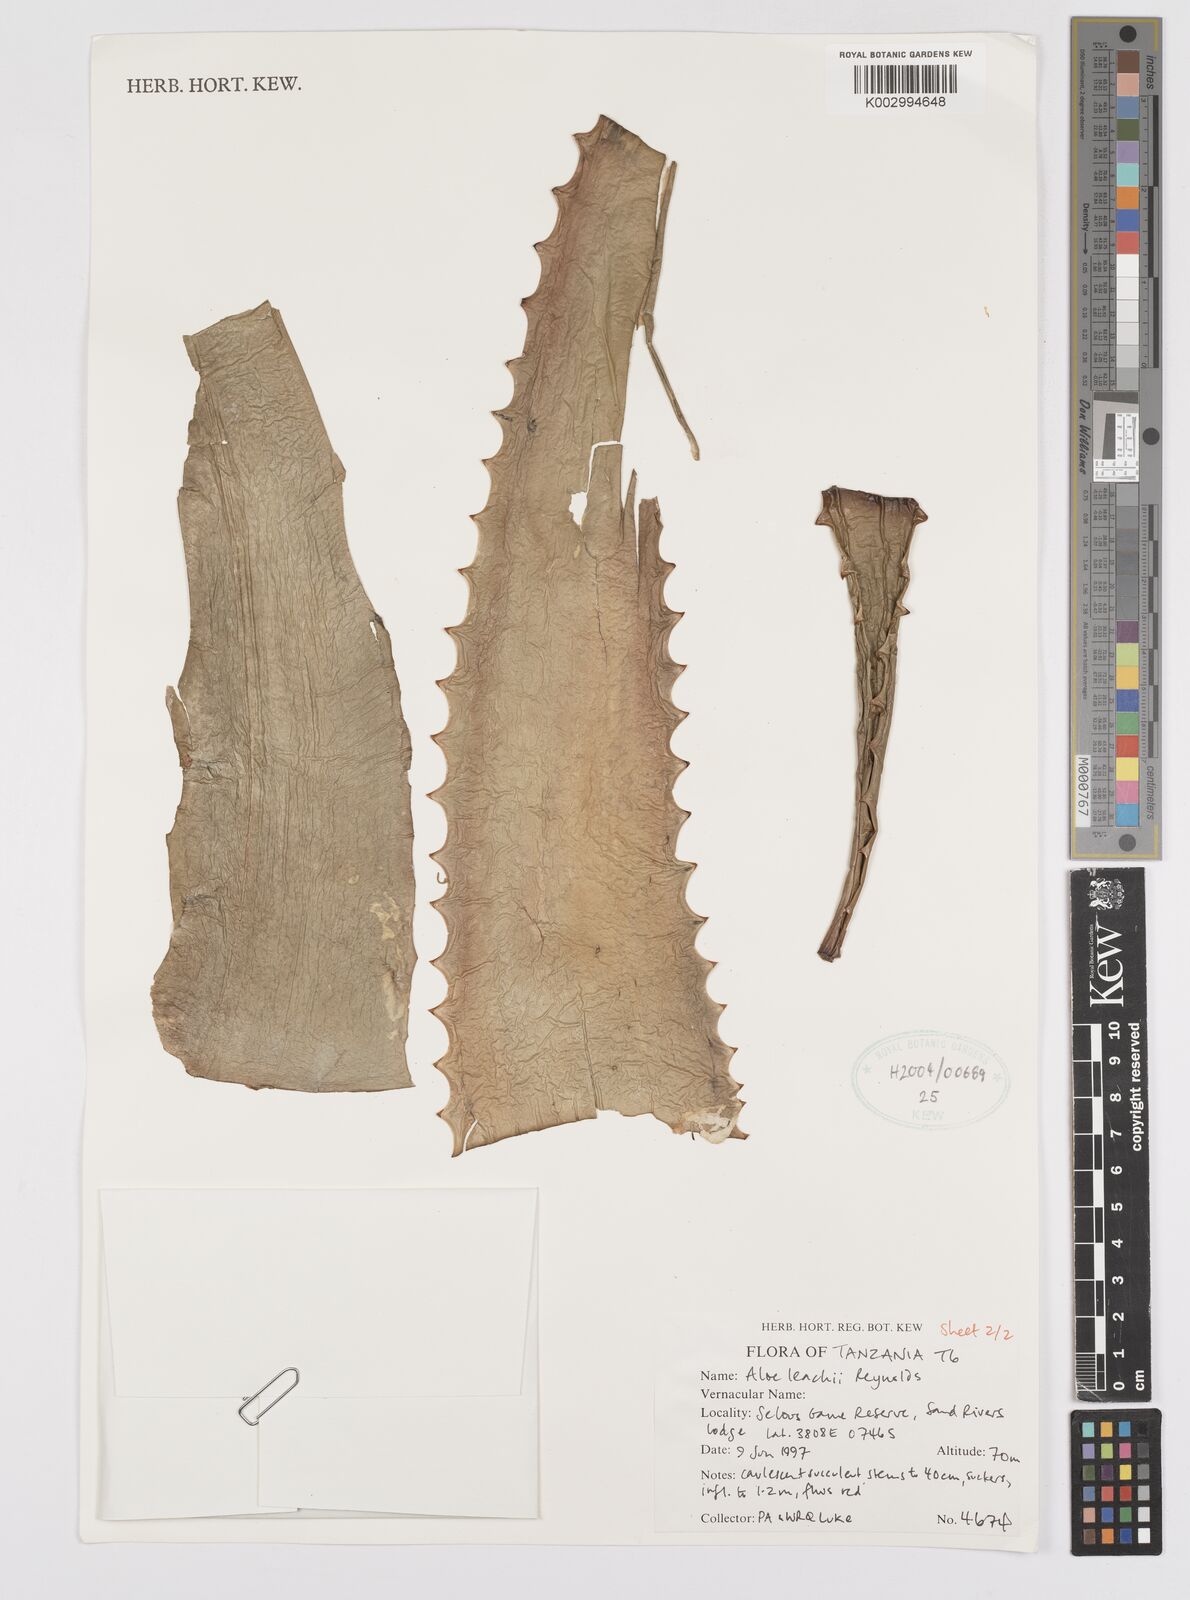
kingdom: Plantae
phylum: Tracheophyta
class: Liliopsida
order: Asparagales
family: Asphodelaceae
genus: Aloe
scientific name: Aloe leachii
